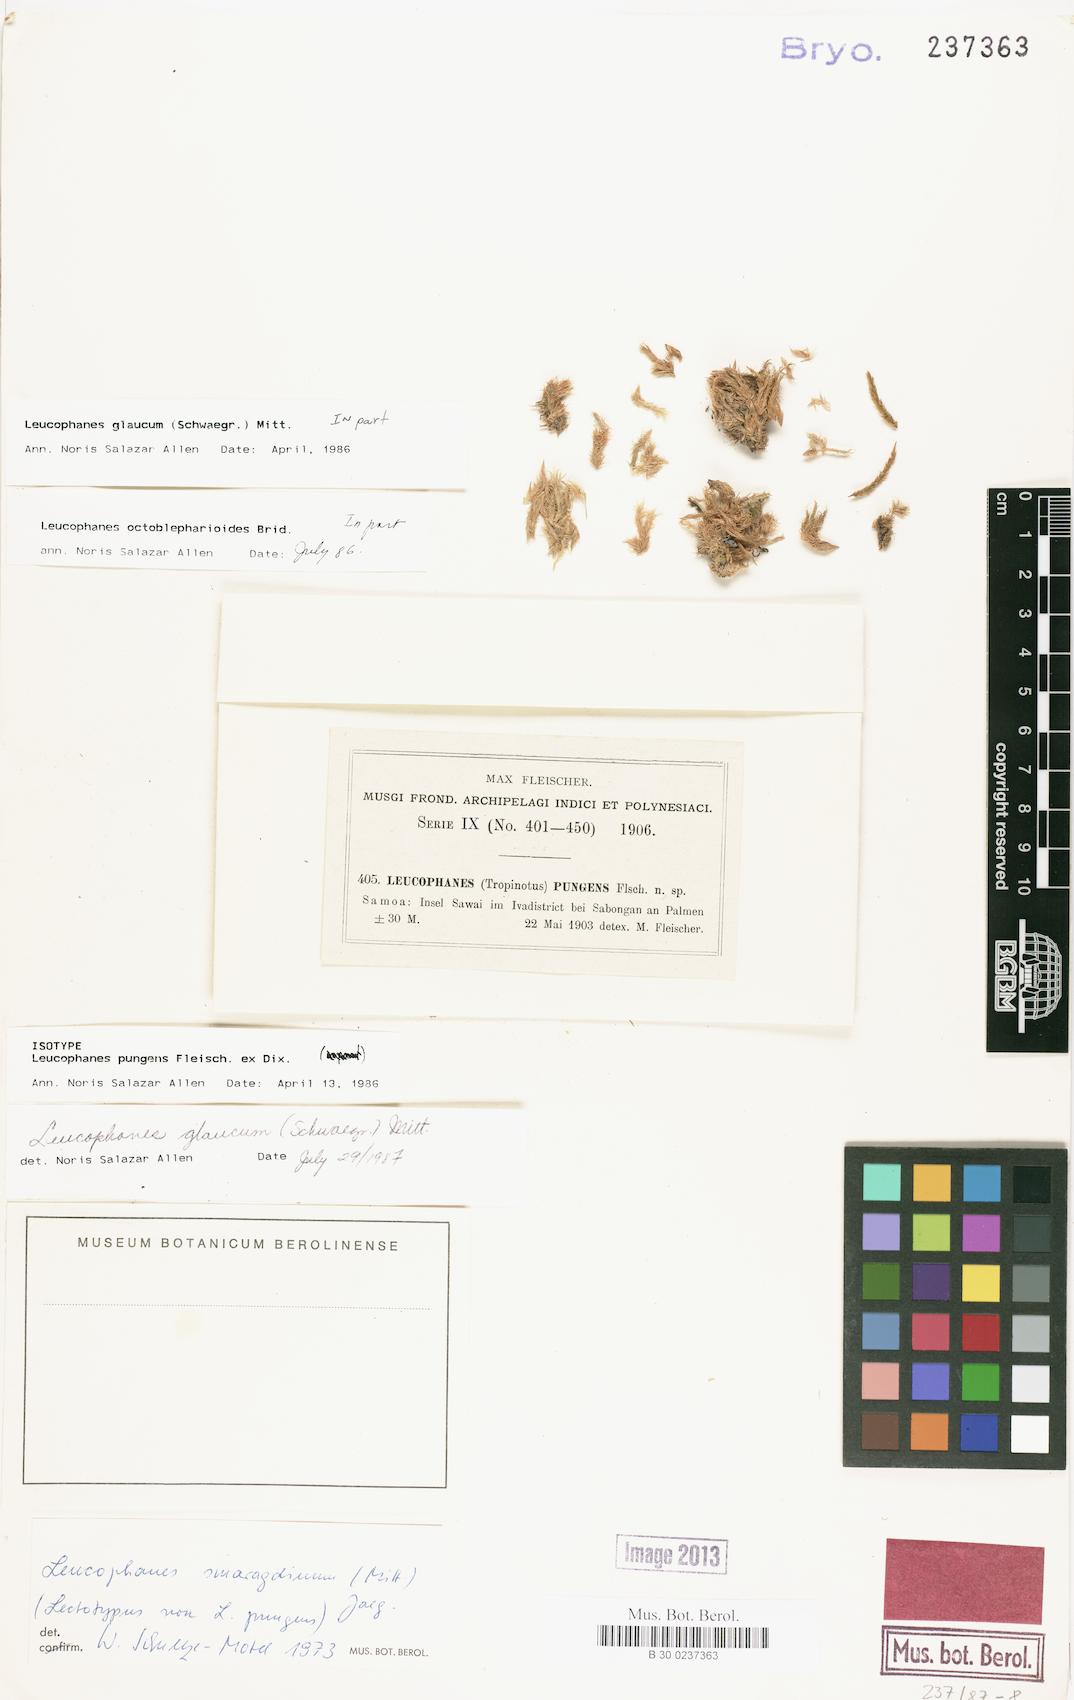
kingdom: Plantae
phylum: Bryophyta
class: Bryopsida
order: Dicranales
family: Calymperaceae
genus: Leucophanes
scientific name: Leucophanes glaucum
